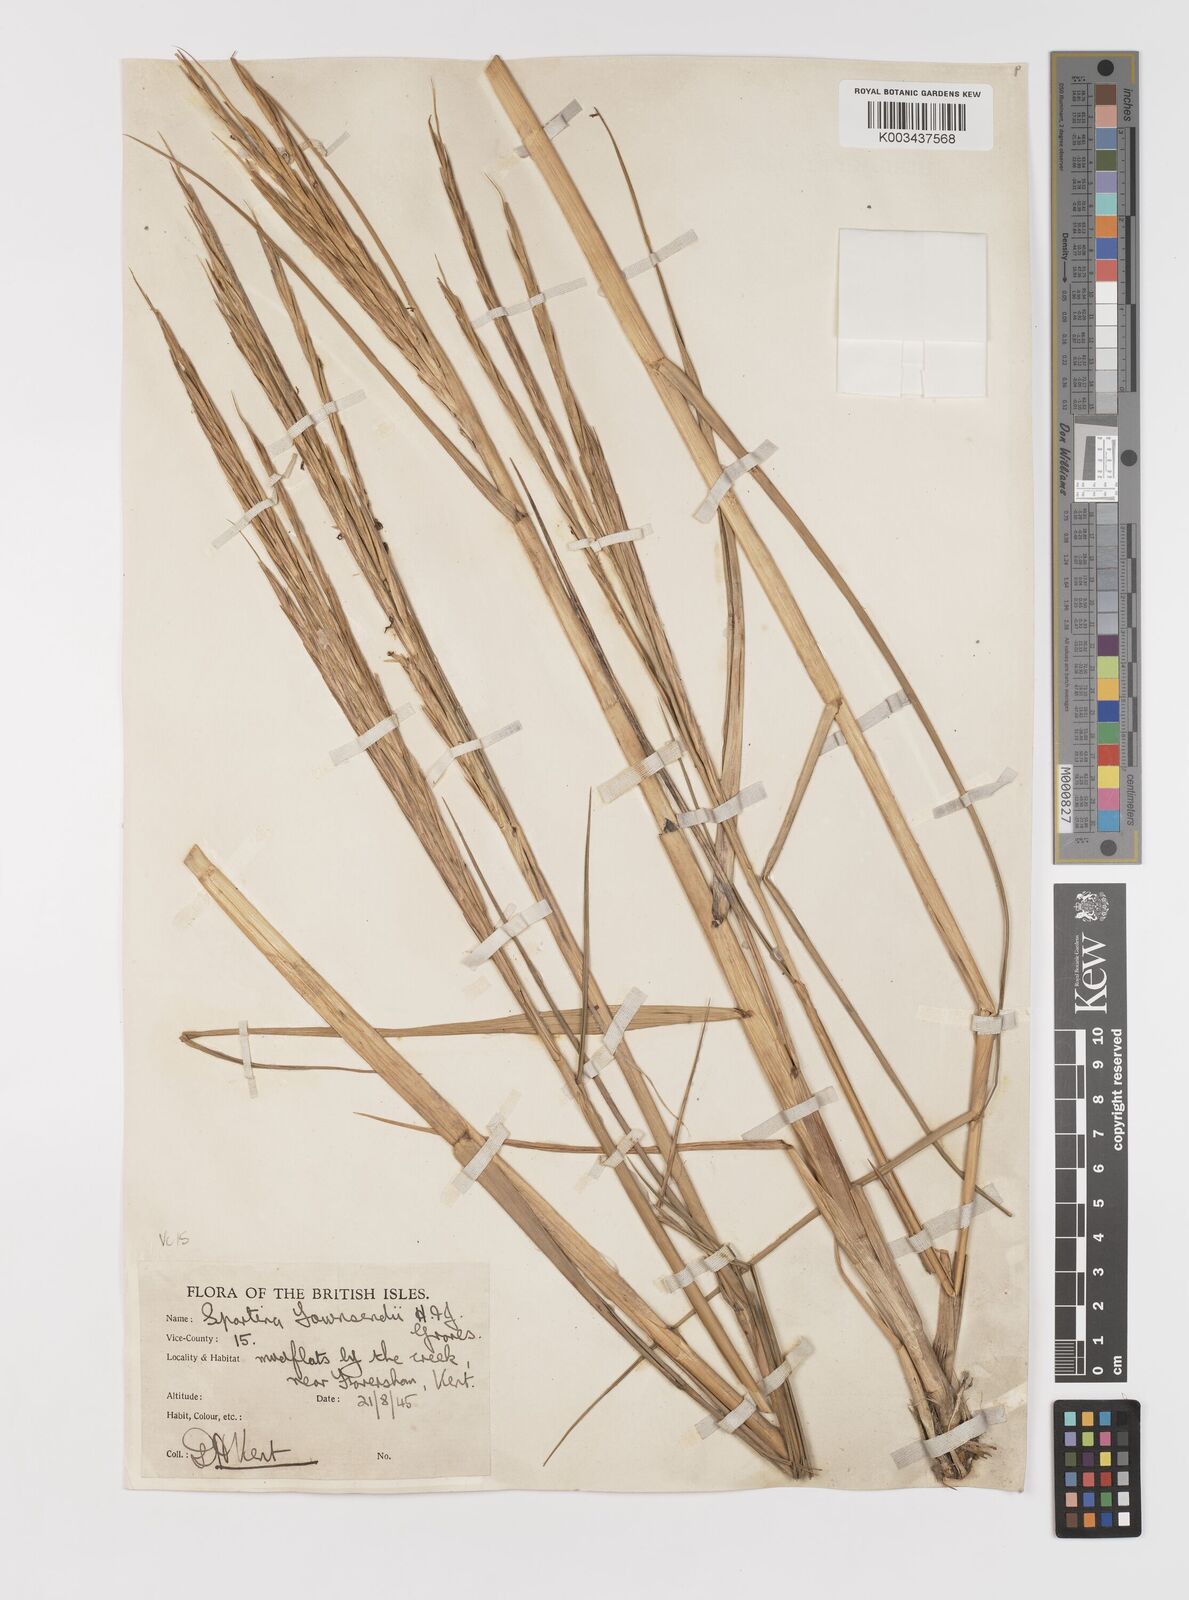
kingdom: Plantae
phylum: Tracheophyta
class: Liliopsida
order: Poales
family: Poaceae
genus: Sporobolus
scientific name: Sporobolus anglicus
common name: English cordgrass
